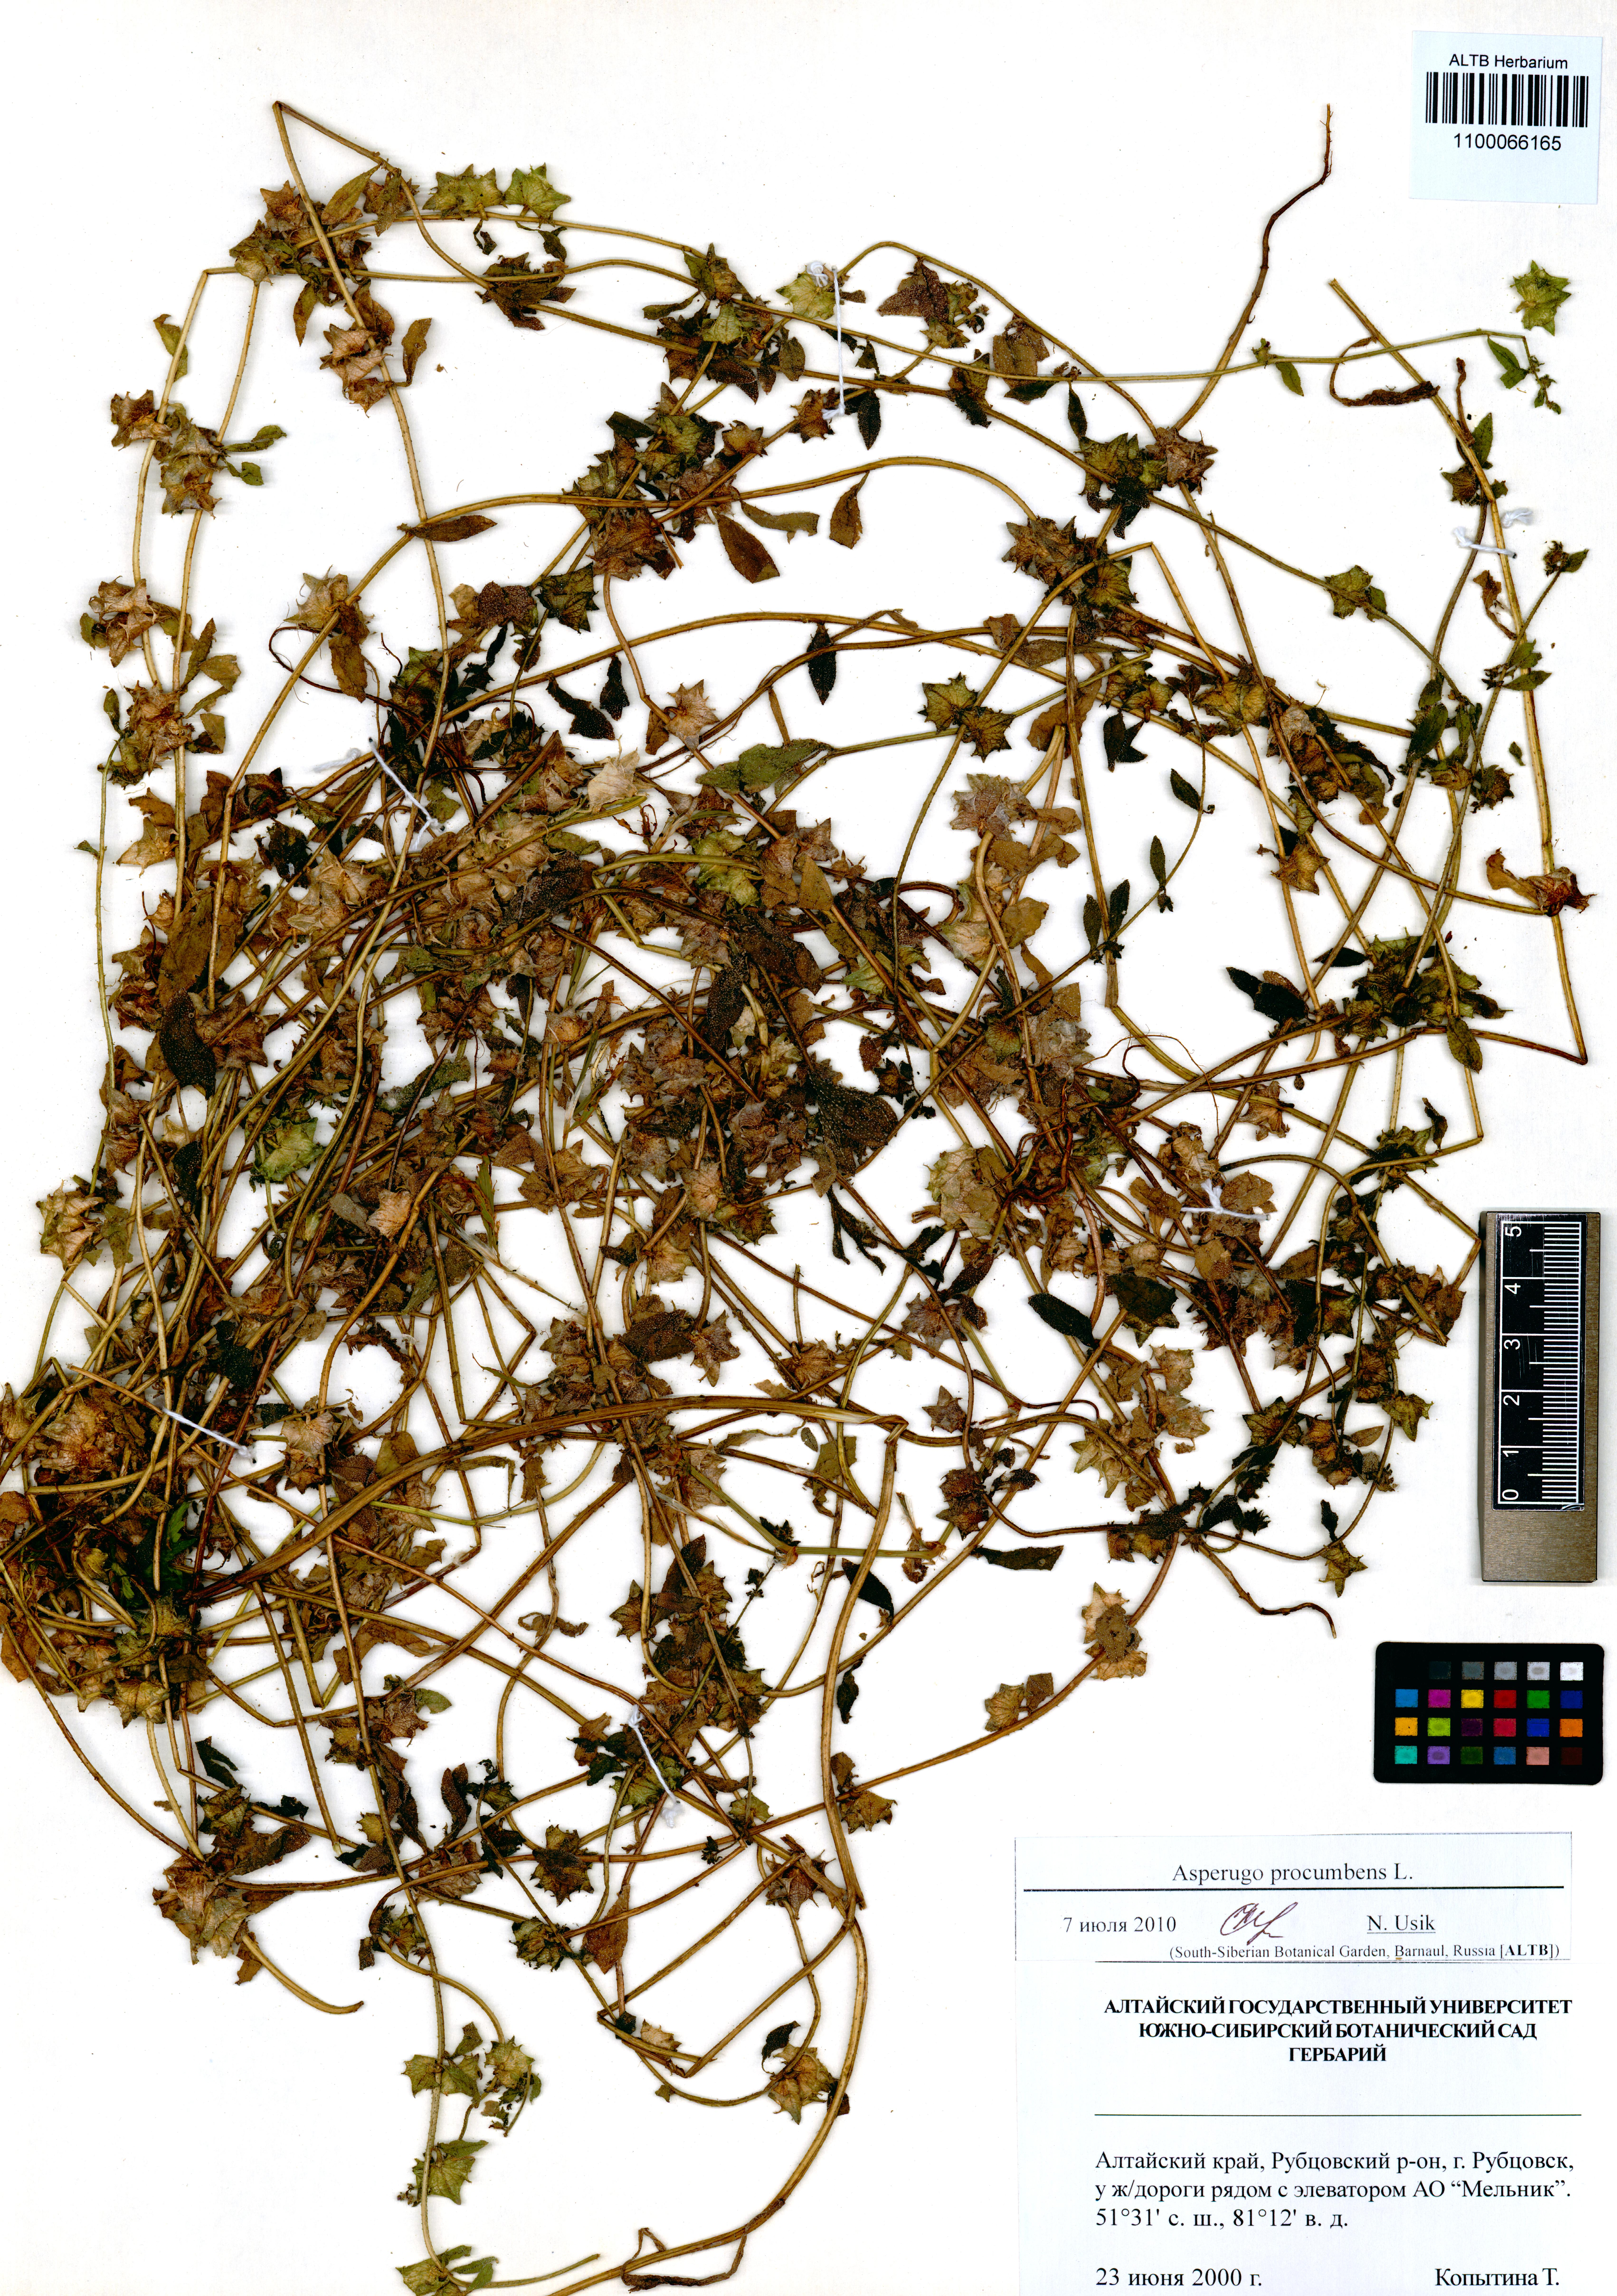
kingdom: Plantae
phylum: Tracheophyta
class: Magnoliopsida
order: Boraginales
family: Boraginaceae
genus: Asperugo
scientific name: Asperugo procumbens
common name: Madwort
